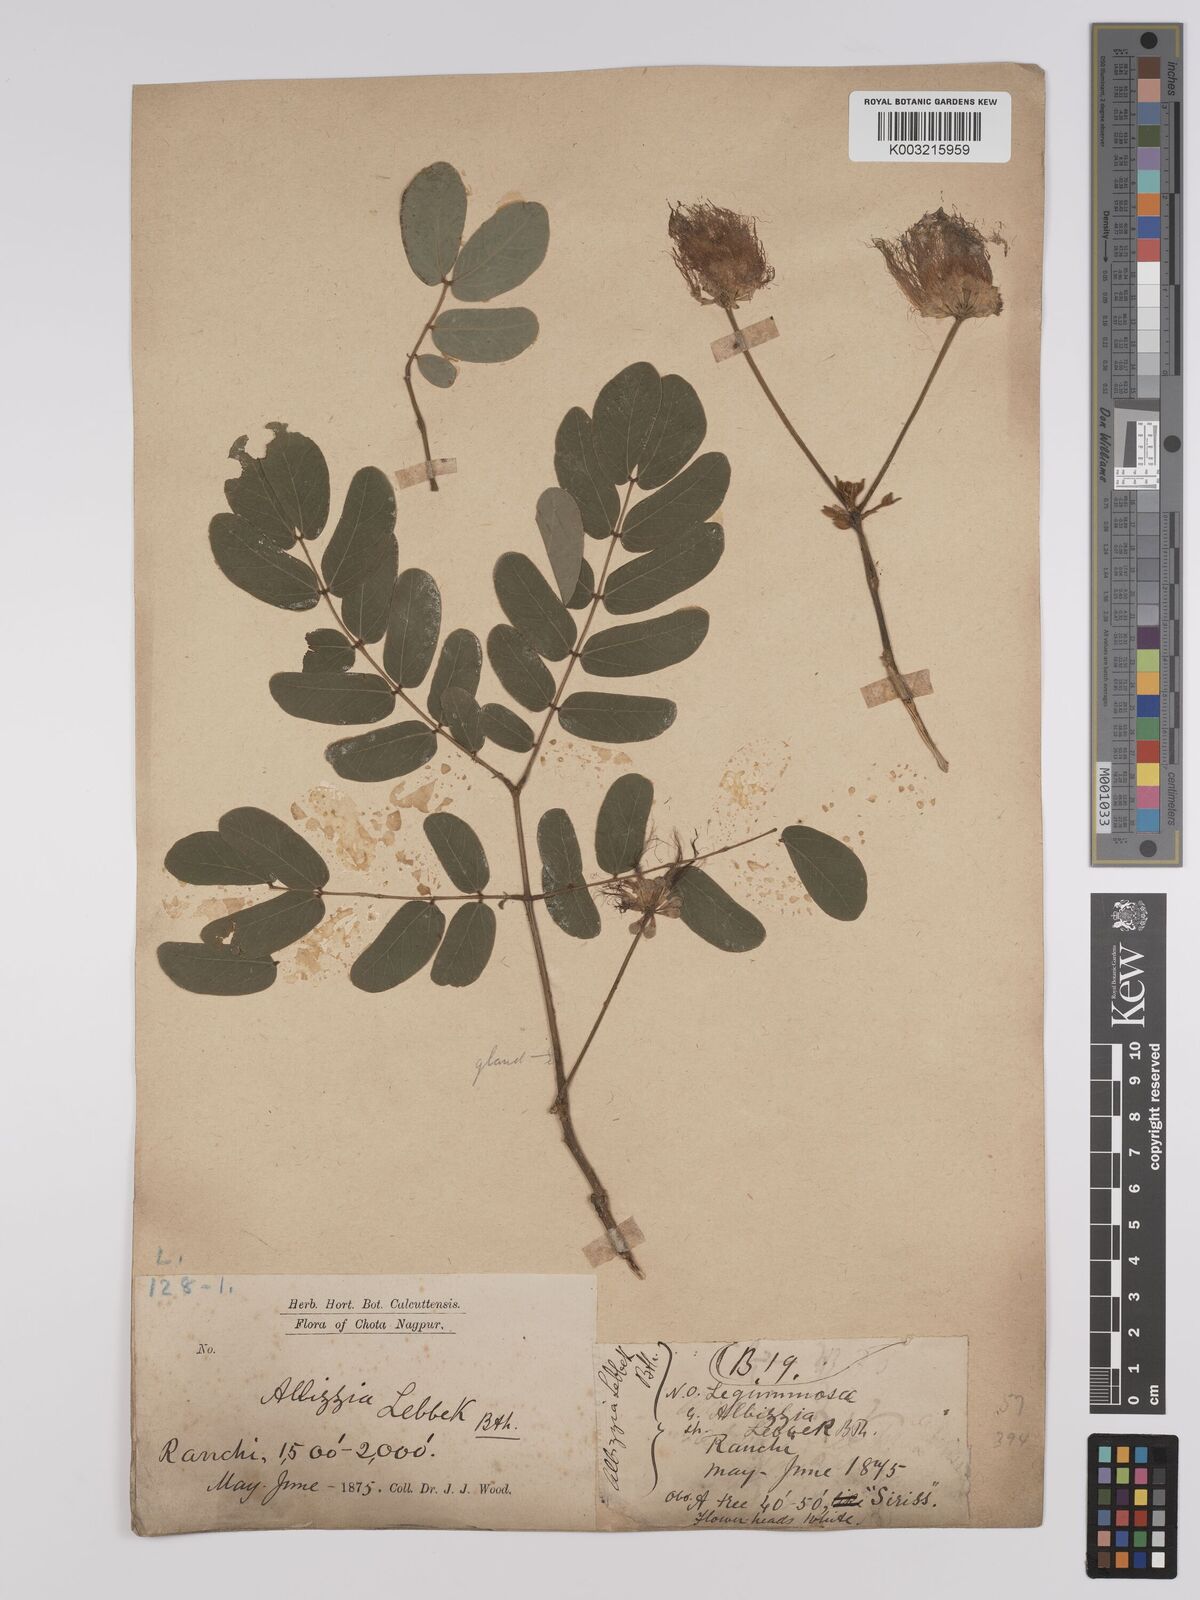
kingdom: Plantae
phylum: Tracheophyta
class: Magnoliopsida
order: Fabales
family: Fabaceae
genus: Albizia
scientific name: Albizia lebbeck
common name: Woman's tongue
